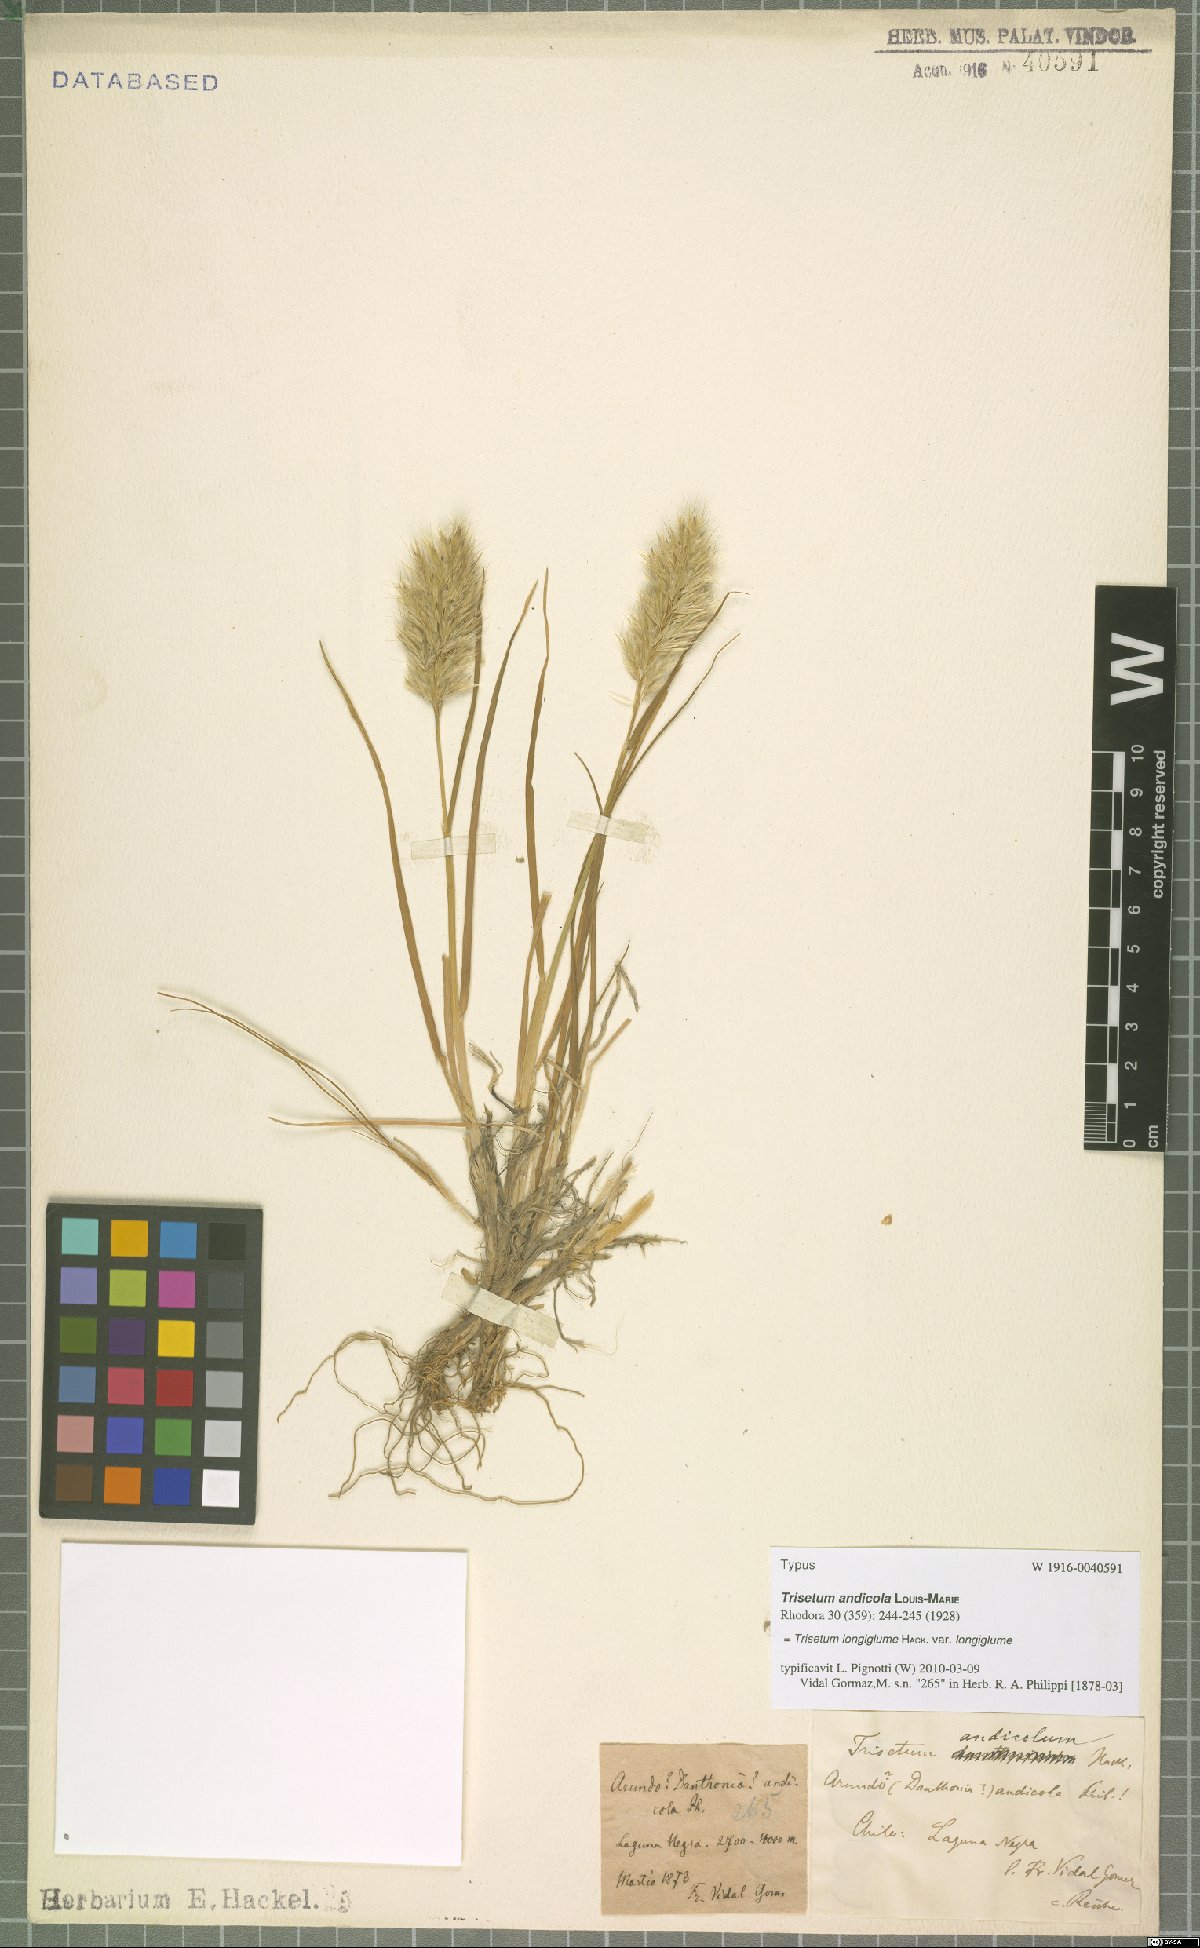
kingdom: Plantae
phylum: Tracheophyta
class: Liliopsida
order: Poales
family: Poaceae
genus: Trisetum
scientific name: Trisetum longiglume
